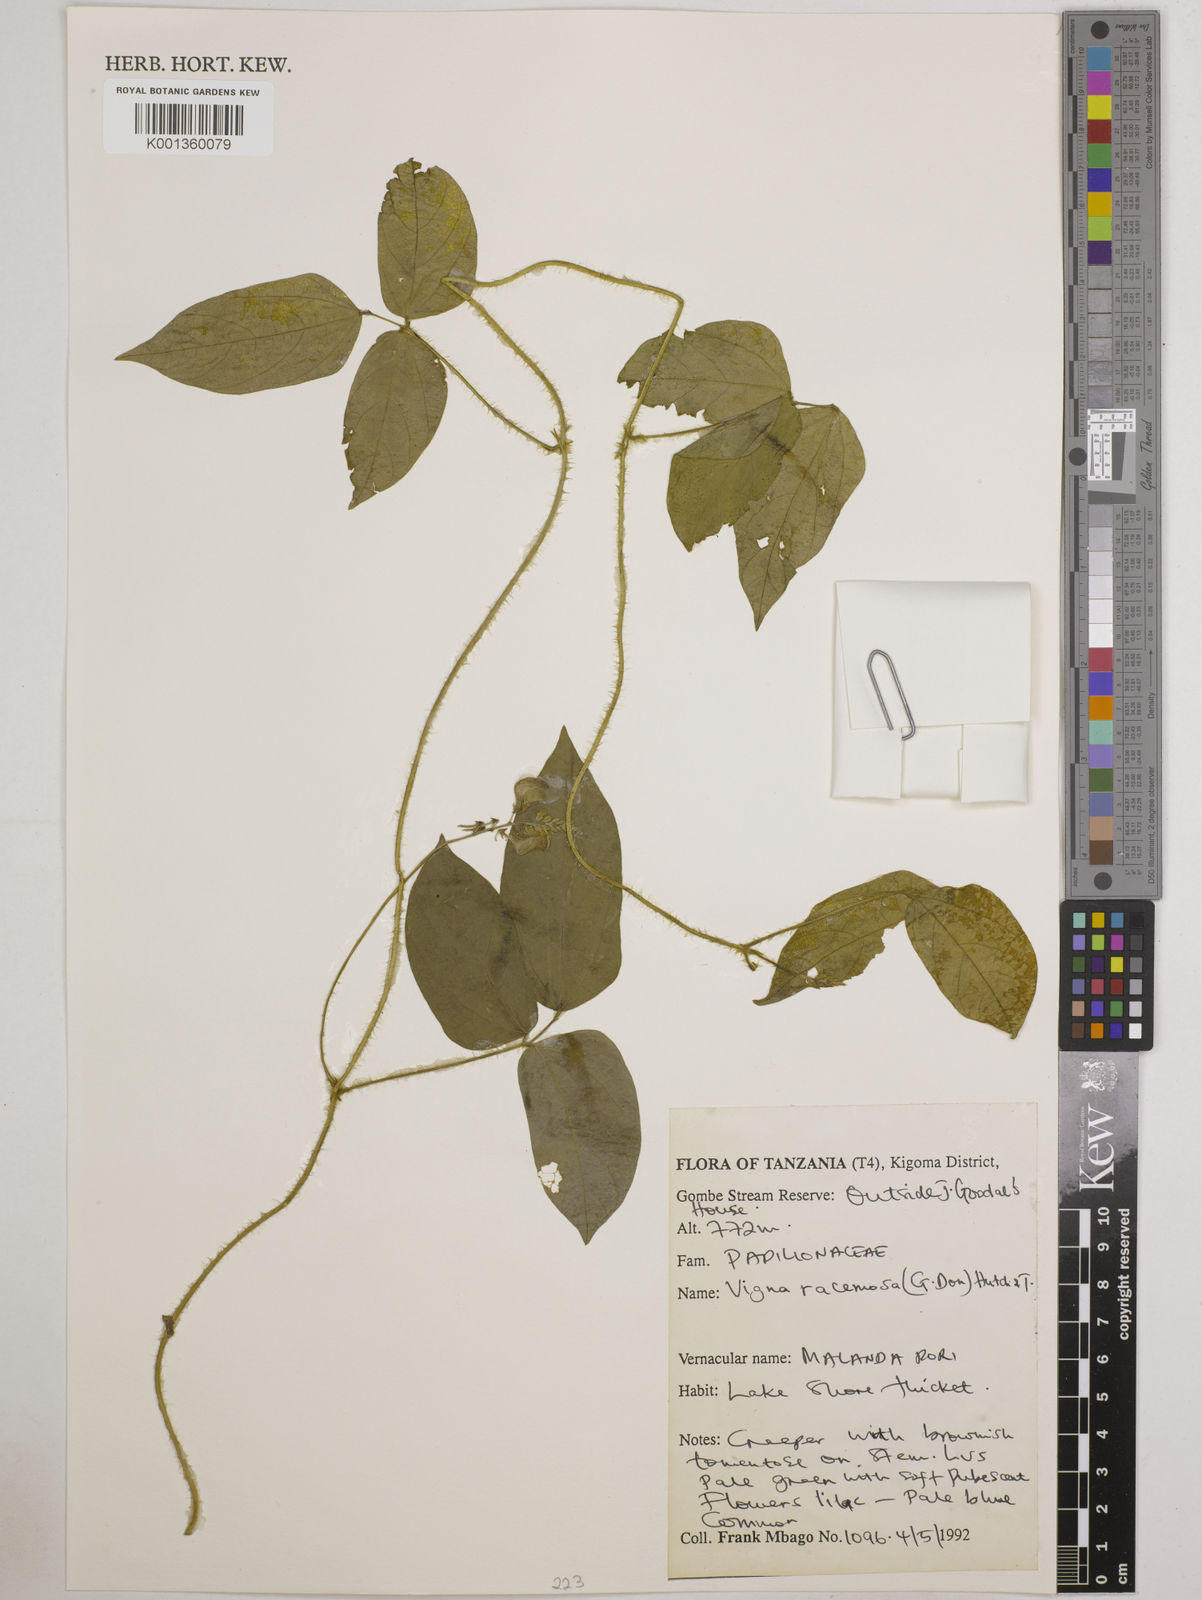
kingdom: Plantae
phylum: Tracheophyta
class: Magnoliopsida
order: Fabales
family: Fabaceae
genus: Vigna
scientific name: Vigna racemosa
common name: Beans not eaten
